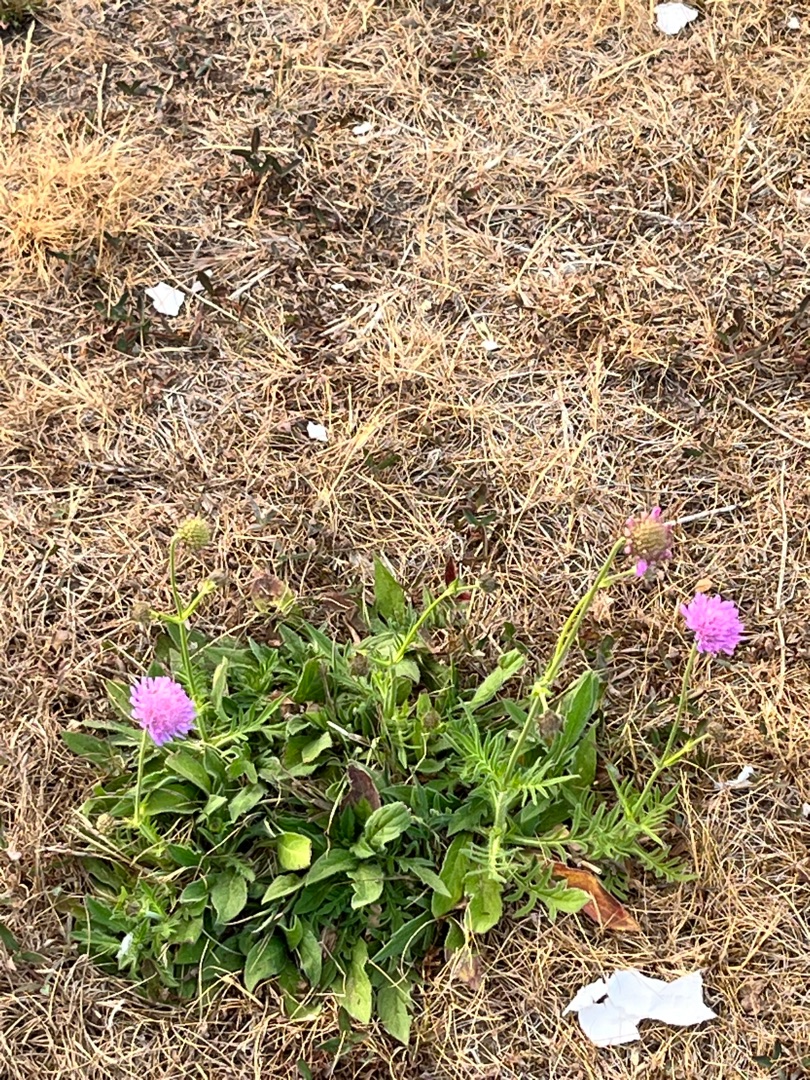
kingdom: Plantae
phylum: Tracheophyta
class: Magnoliopsida
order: Dipsacales
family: Caprifoliaceae
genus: Knautia
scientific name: Knautia arvensis
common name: Blåhat
